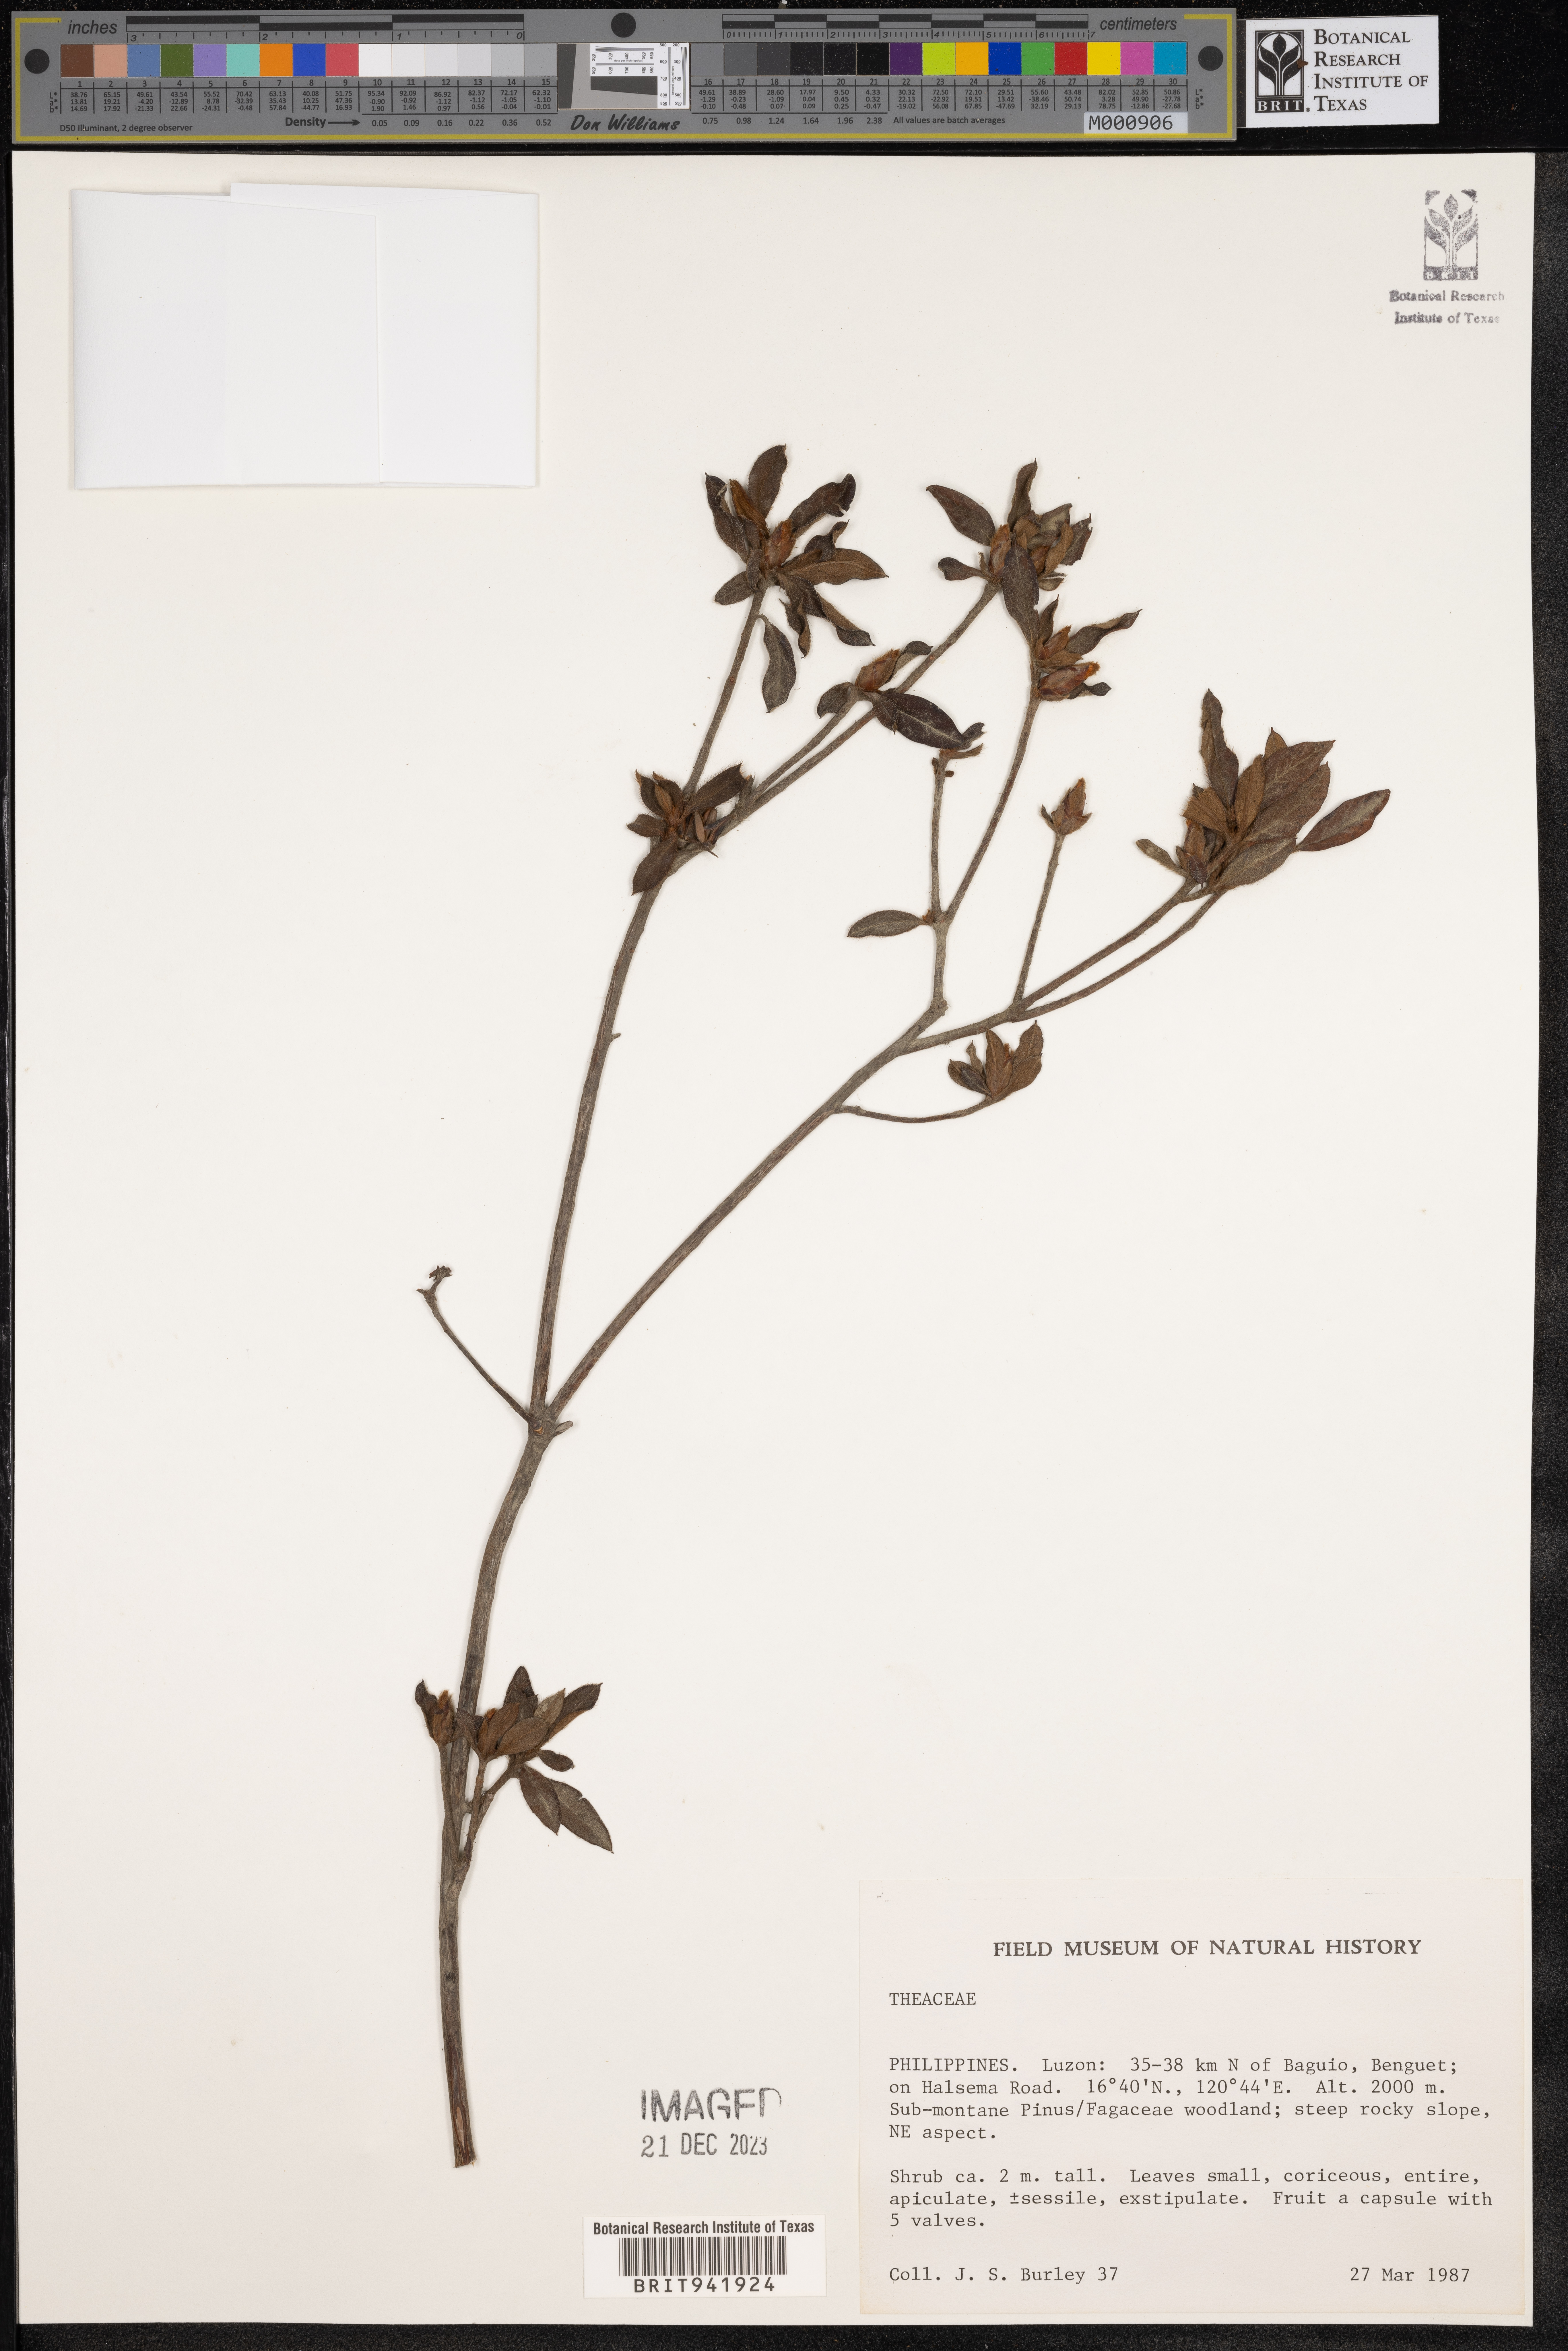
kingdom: Plantae
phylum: Tracheophyta
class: Magnoliopsida
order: Ericales
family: Theaceae
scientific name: Theaceae
